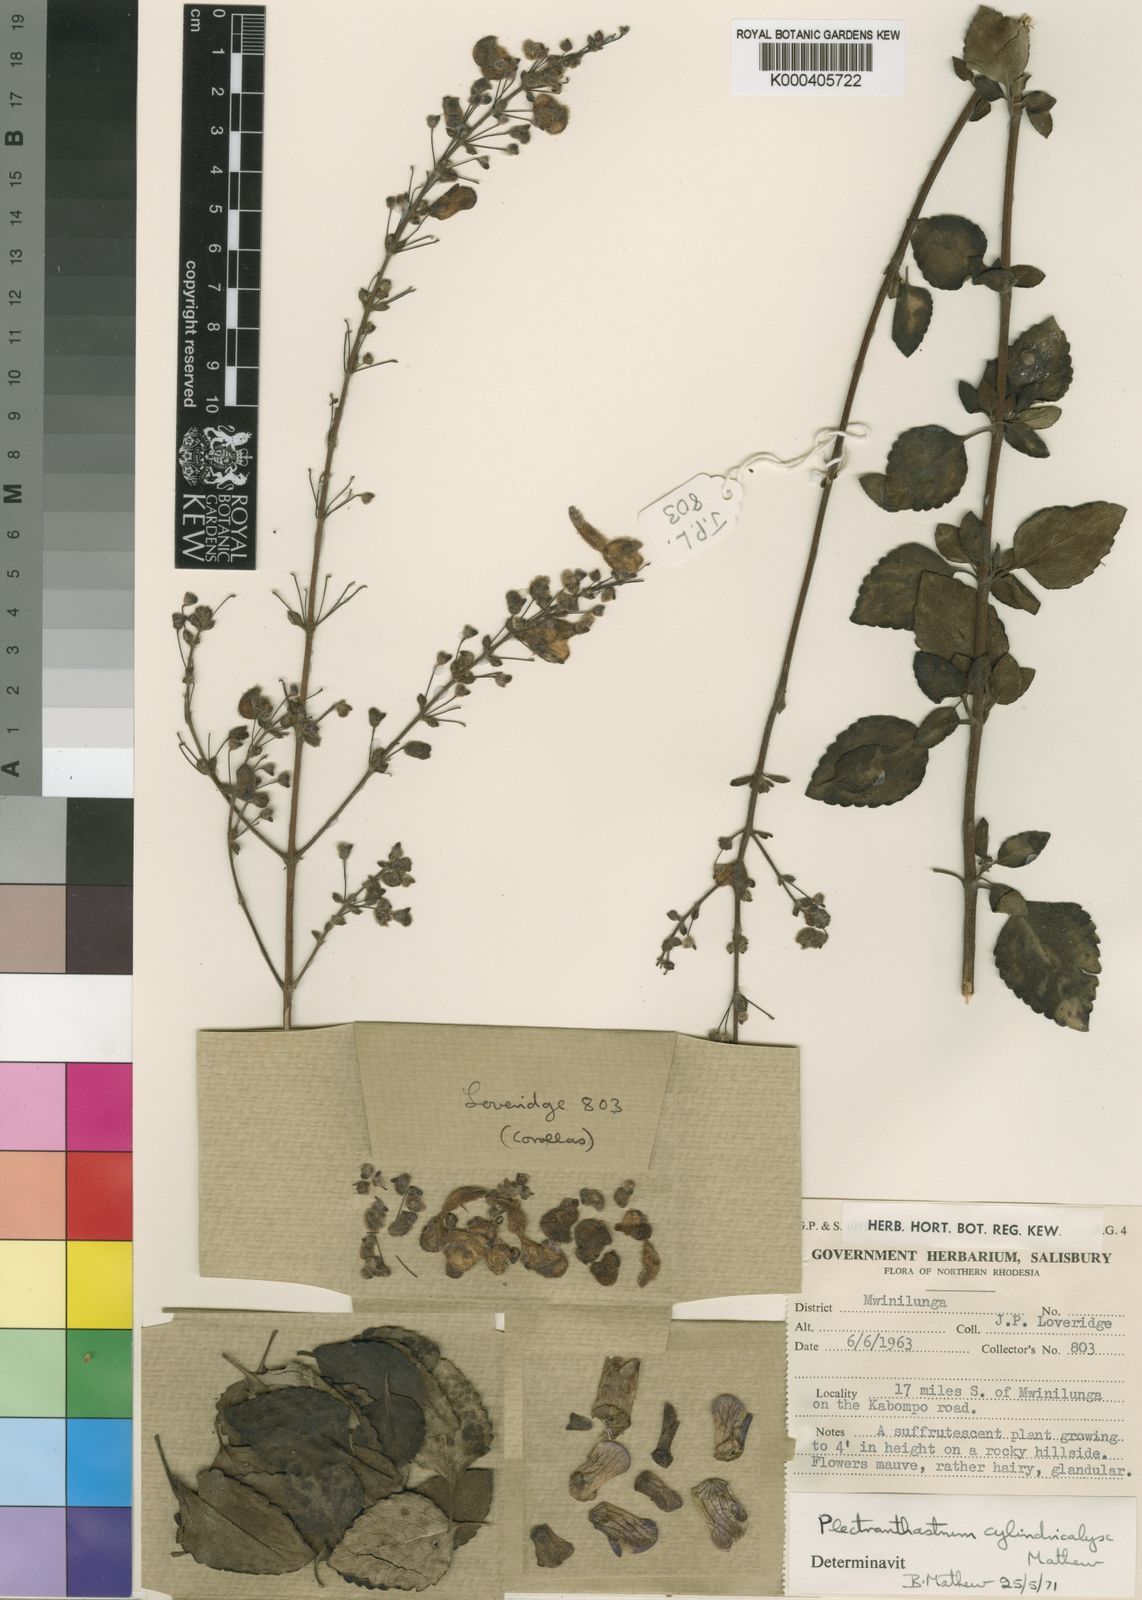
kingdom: Plantae
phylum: Tracheophyta
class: Magnoliopsida
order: Lamiales
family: Lamiaceae
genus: Alvesia
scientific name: Alvesia cylindricalyx
